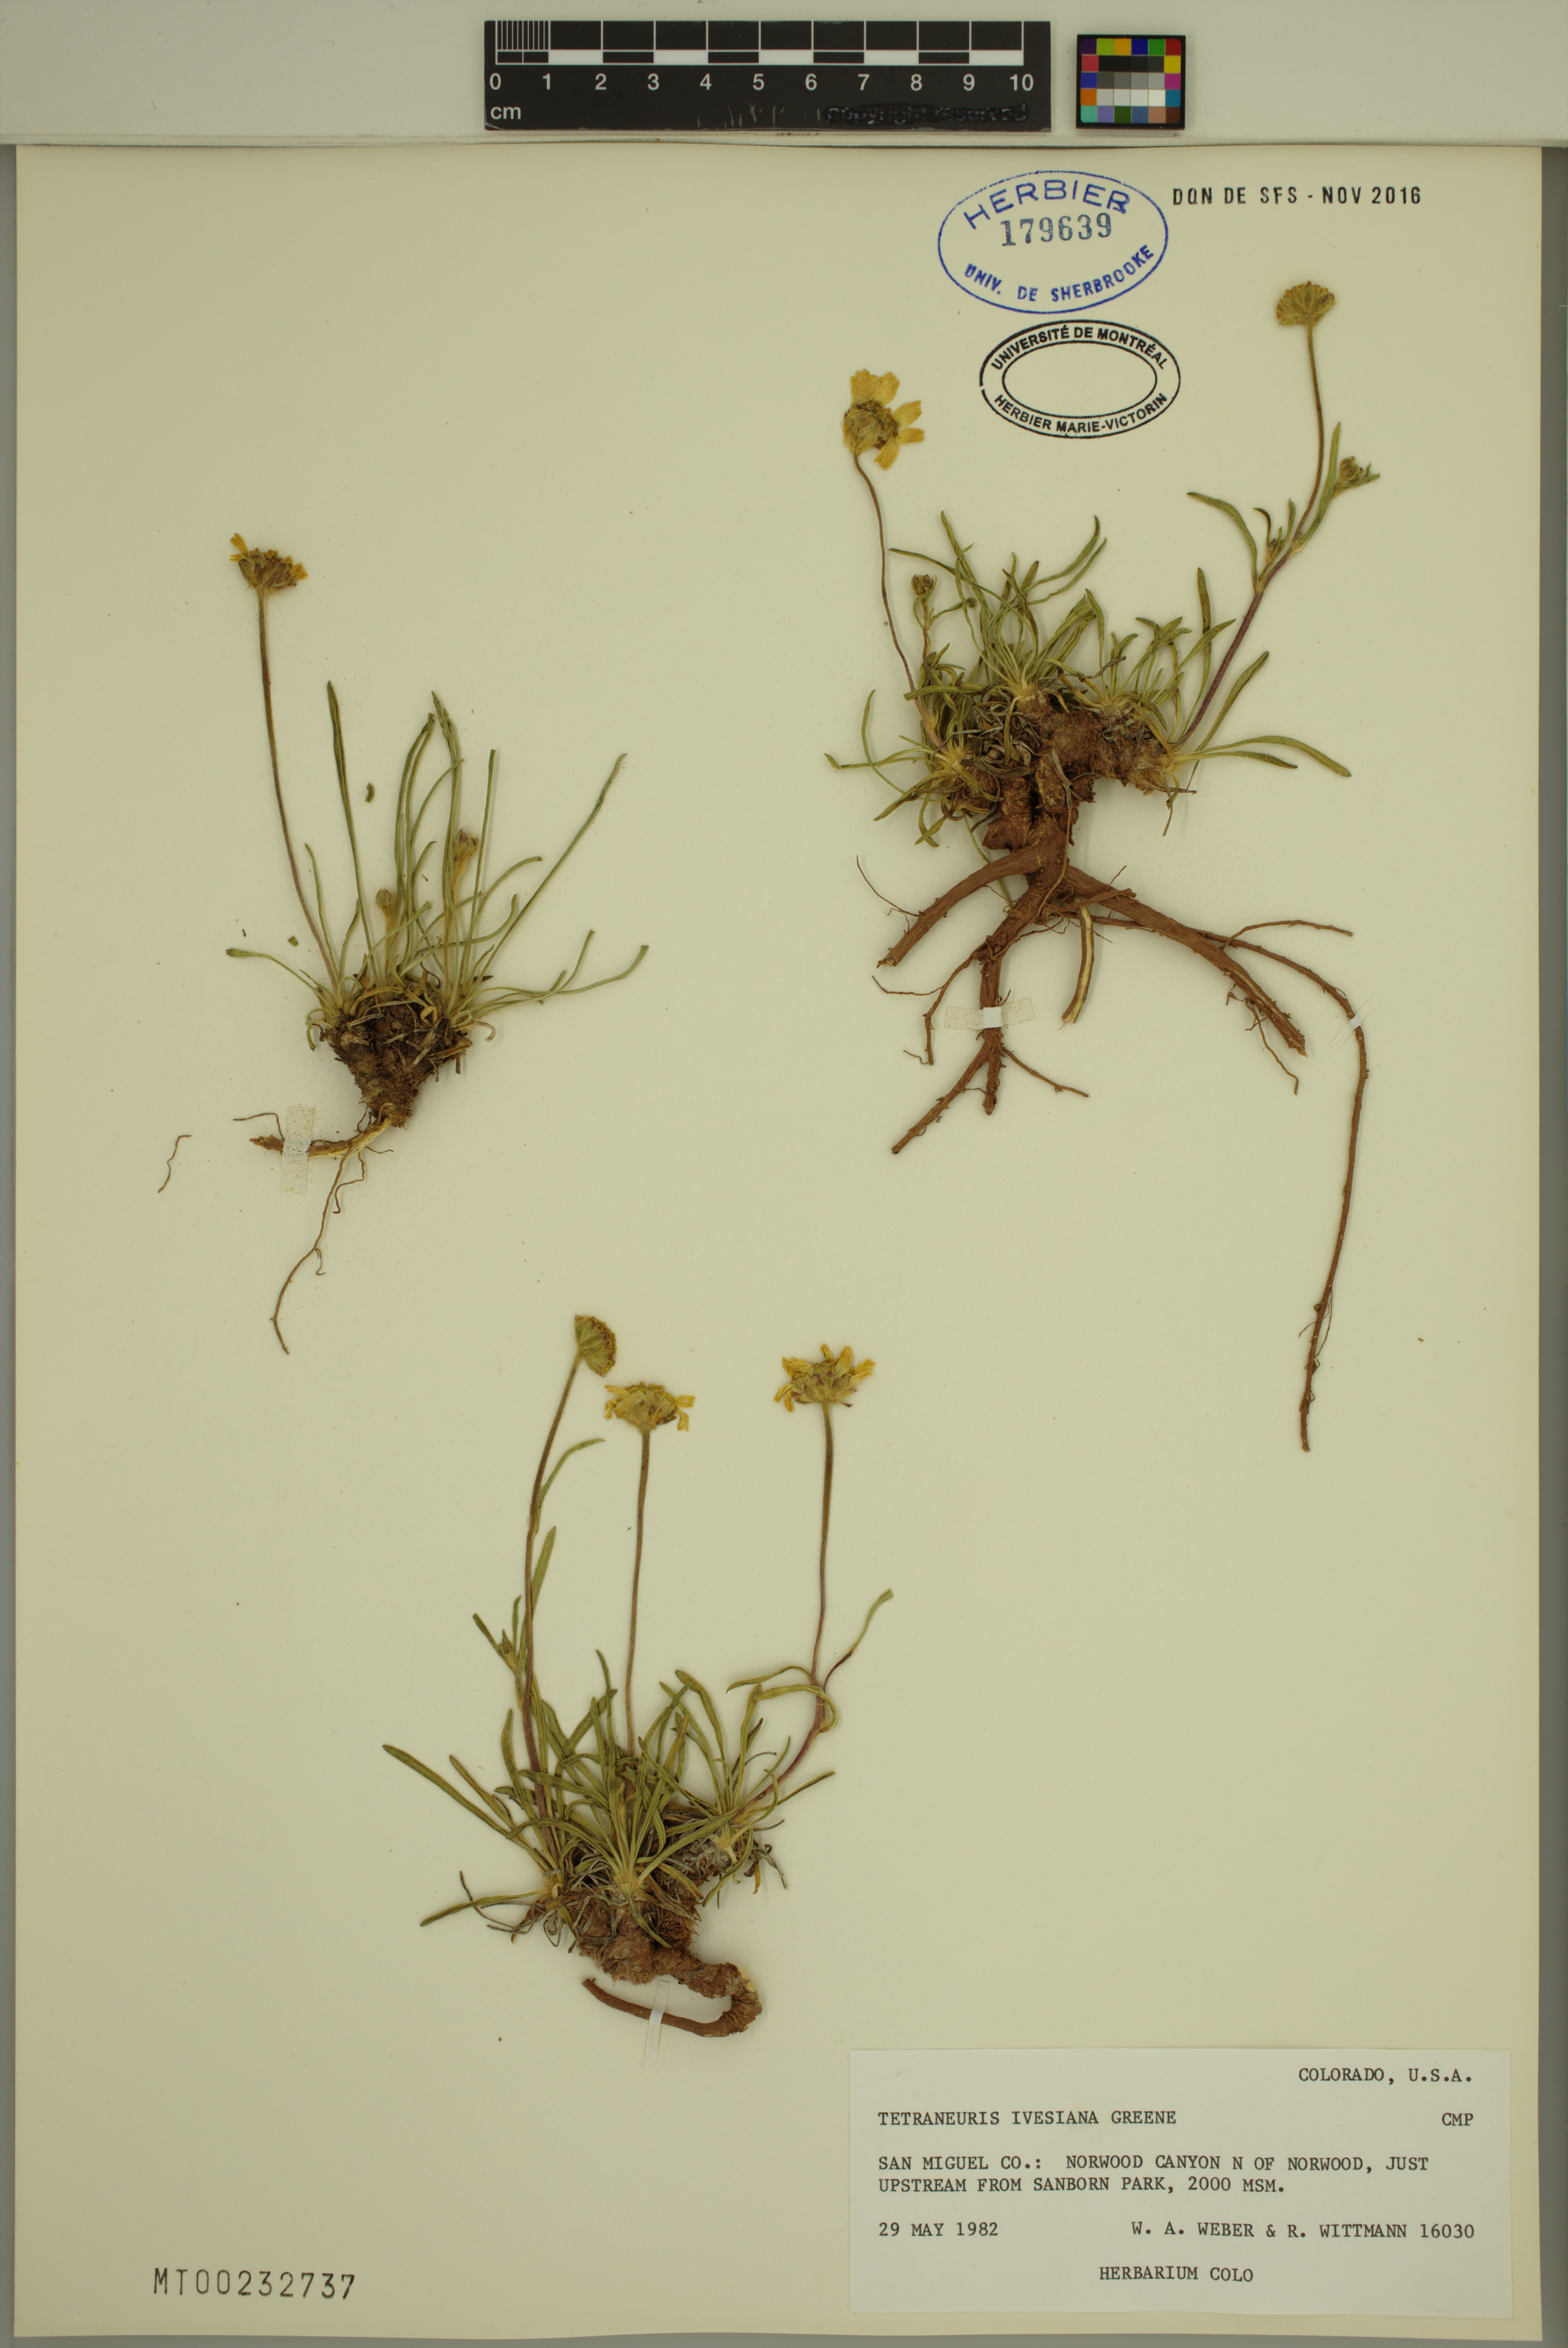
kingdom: Plantae
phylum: Tracheophyta
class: Magnoliopsida
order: Asterales
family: Asteraceae
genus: Tetraneuris
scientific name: Tetraneuris ivesiana
